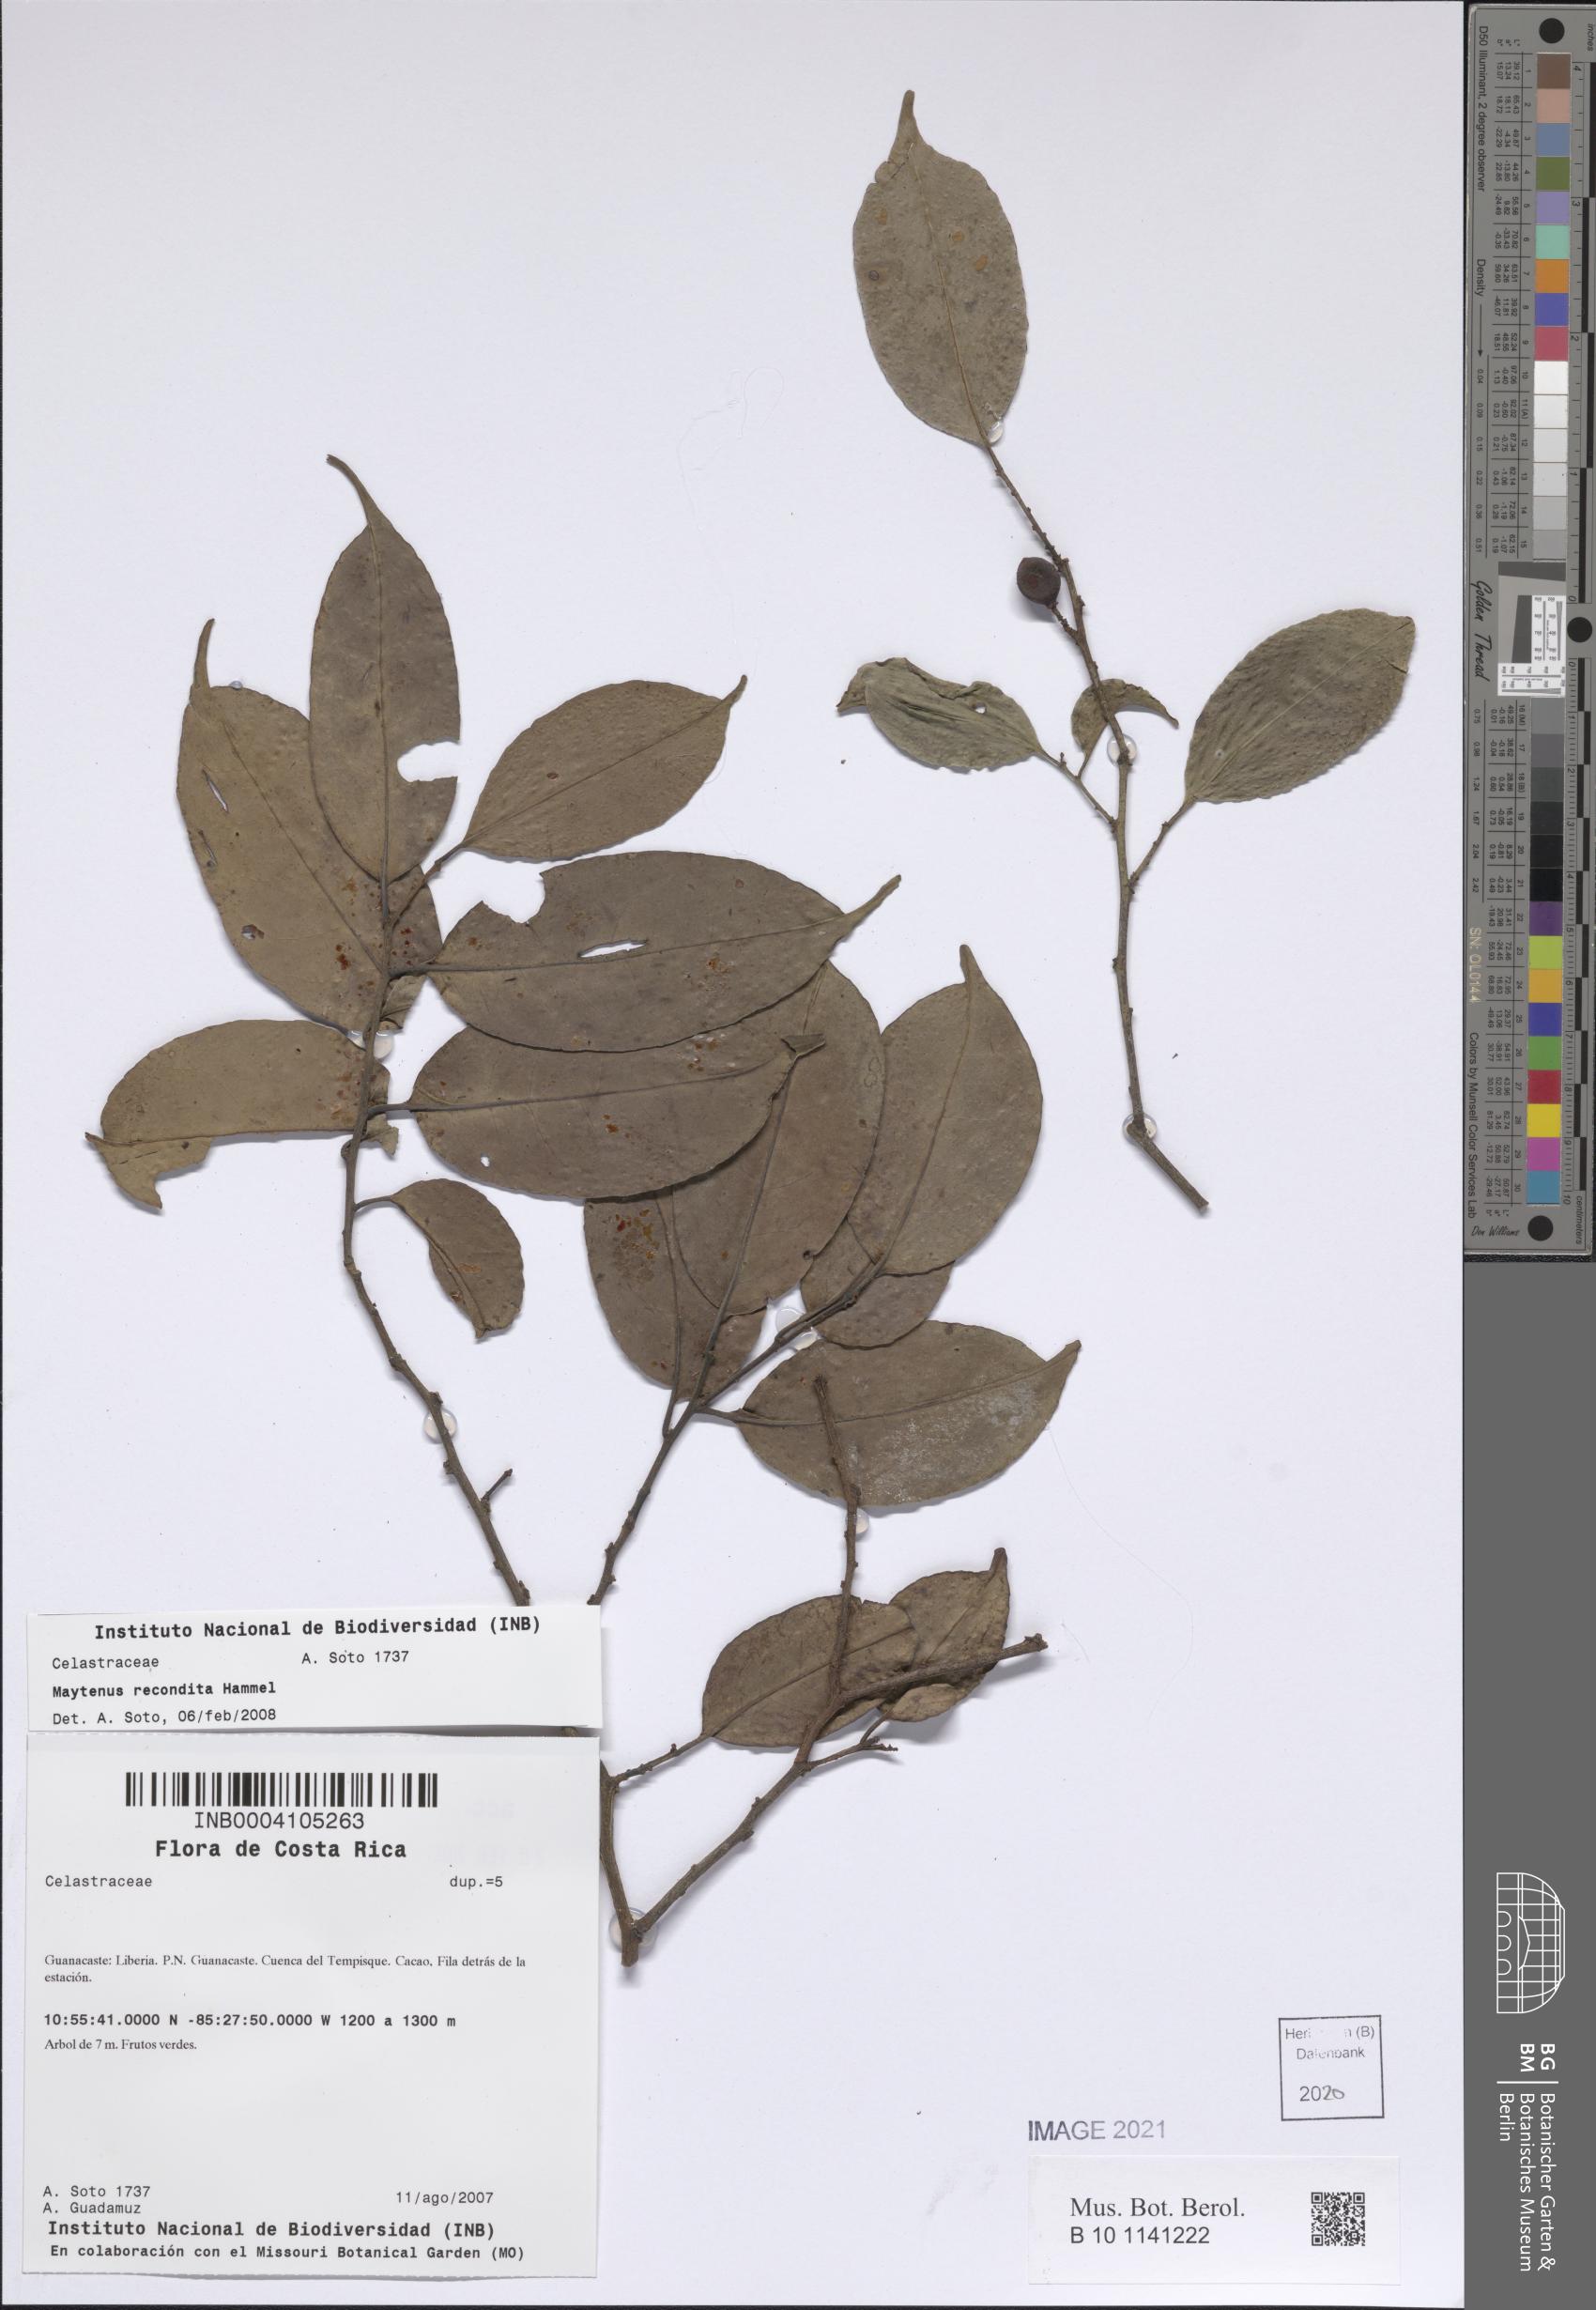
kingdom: Plantae
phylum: Tracheophyta
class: Magnoliopsida
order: Celastrales
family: Celastraceae
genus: Monteverdia
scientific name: Monteverdia recondita
